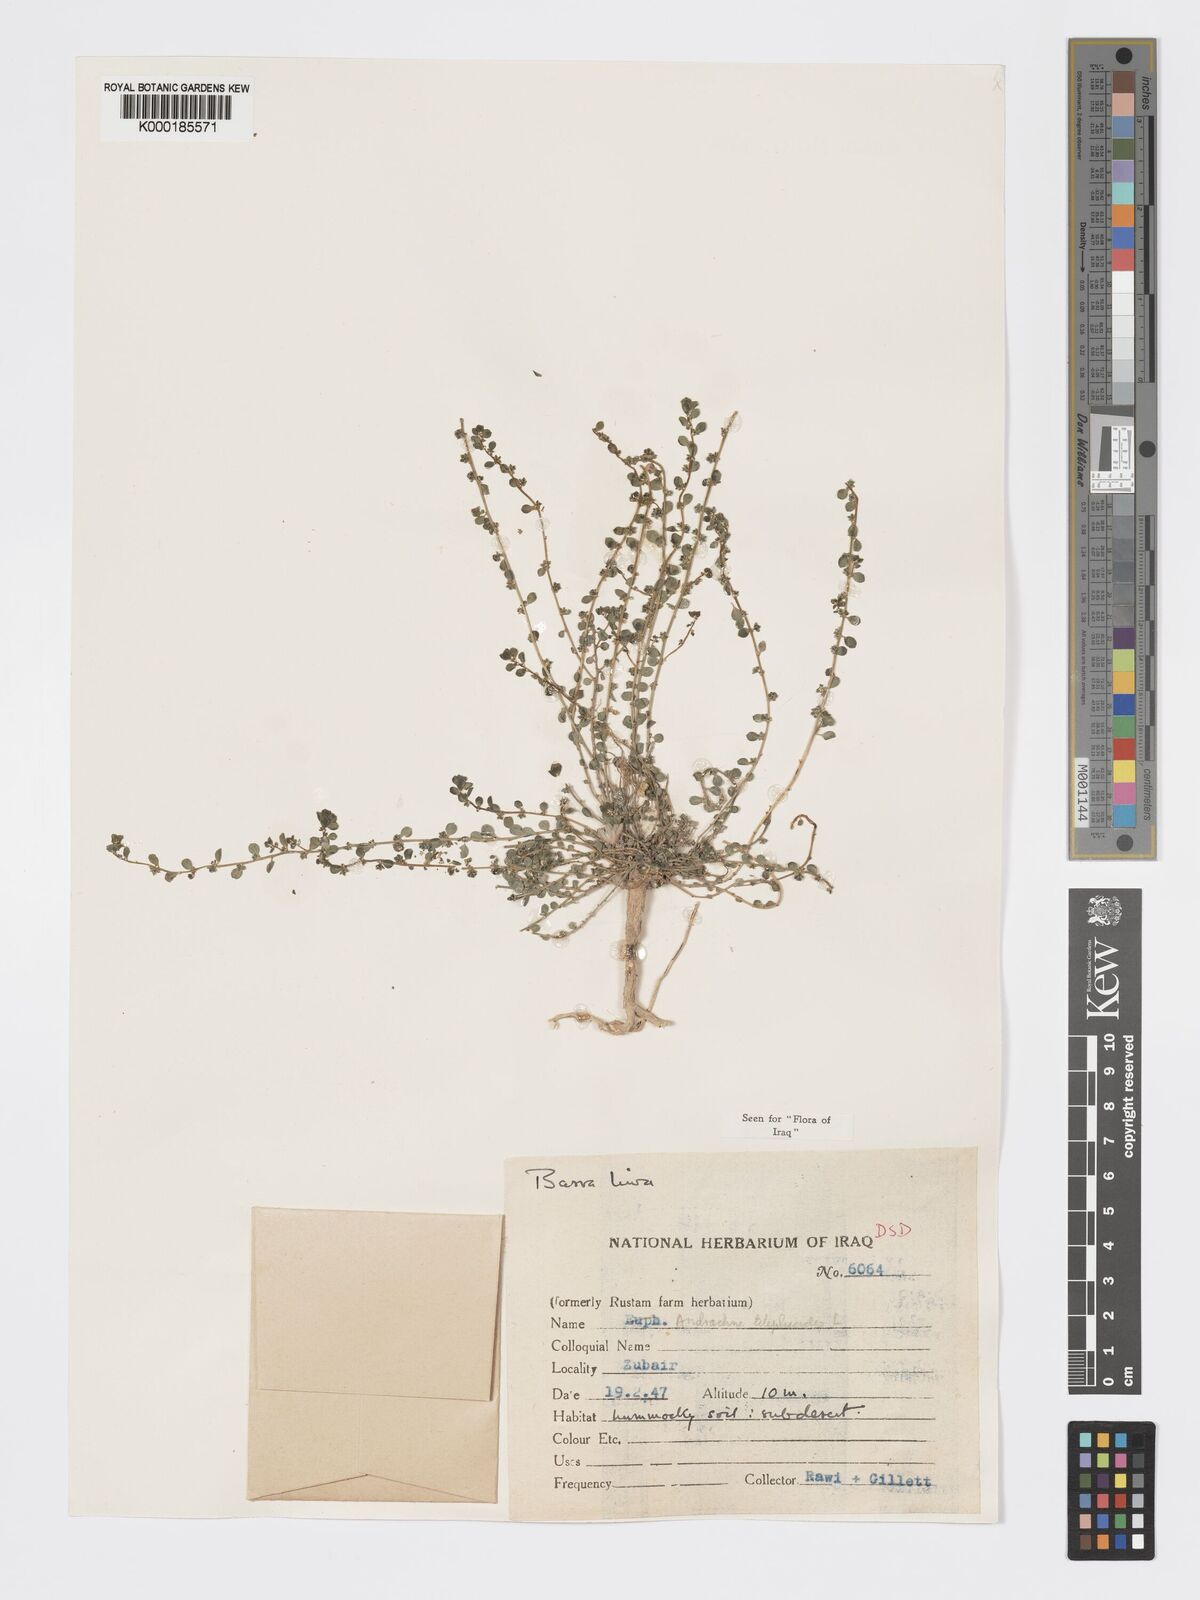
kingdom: Plantae
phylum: Tracheophyta
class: Magnoliopsida
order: Malpighiales
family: Phyllanthaceae
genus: Andrachne
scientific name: Andrachne telephioides
